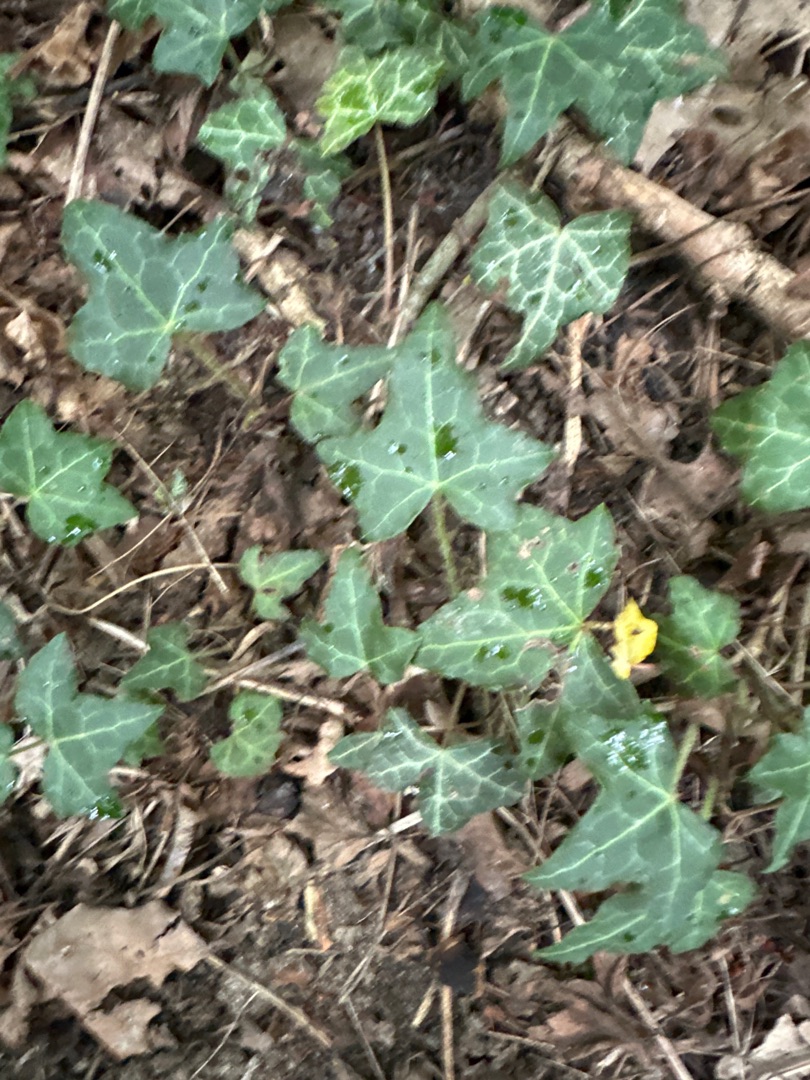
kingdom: Plantae
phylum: Tracheophyta
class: Magnoliopsida
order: Apiales
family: Araliaceae
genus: Hedera
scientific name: Hedera helix
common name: Vedbend
